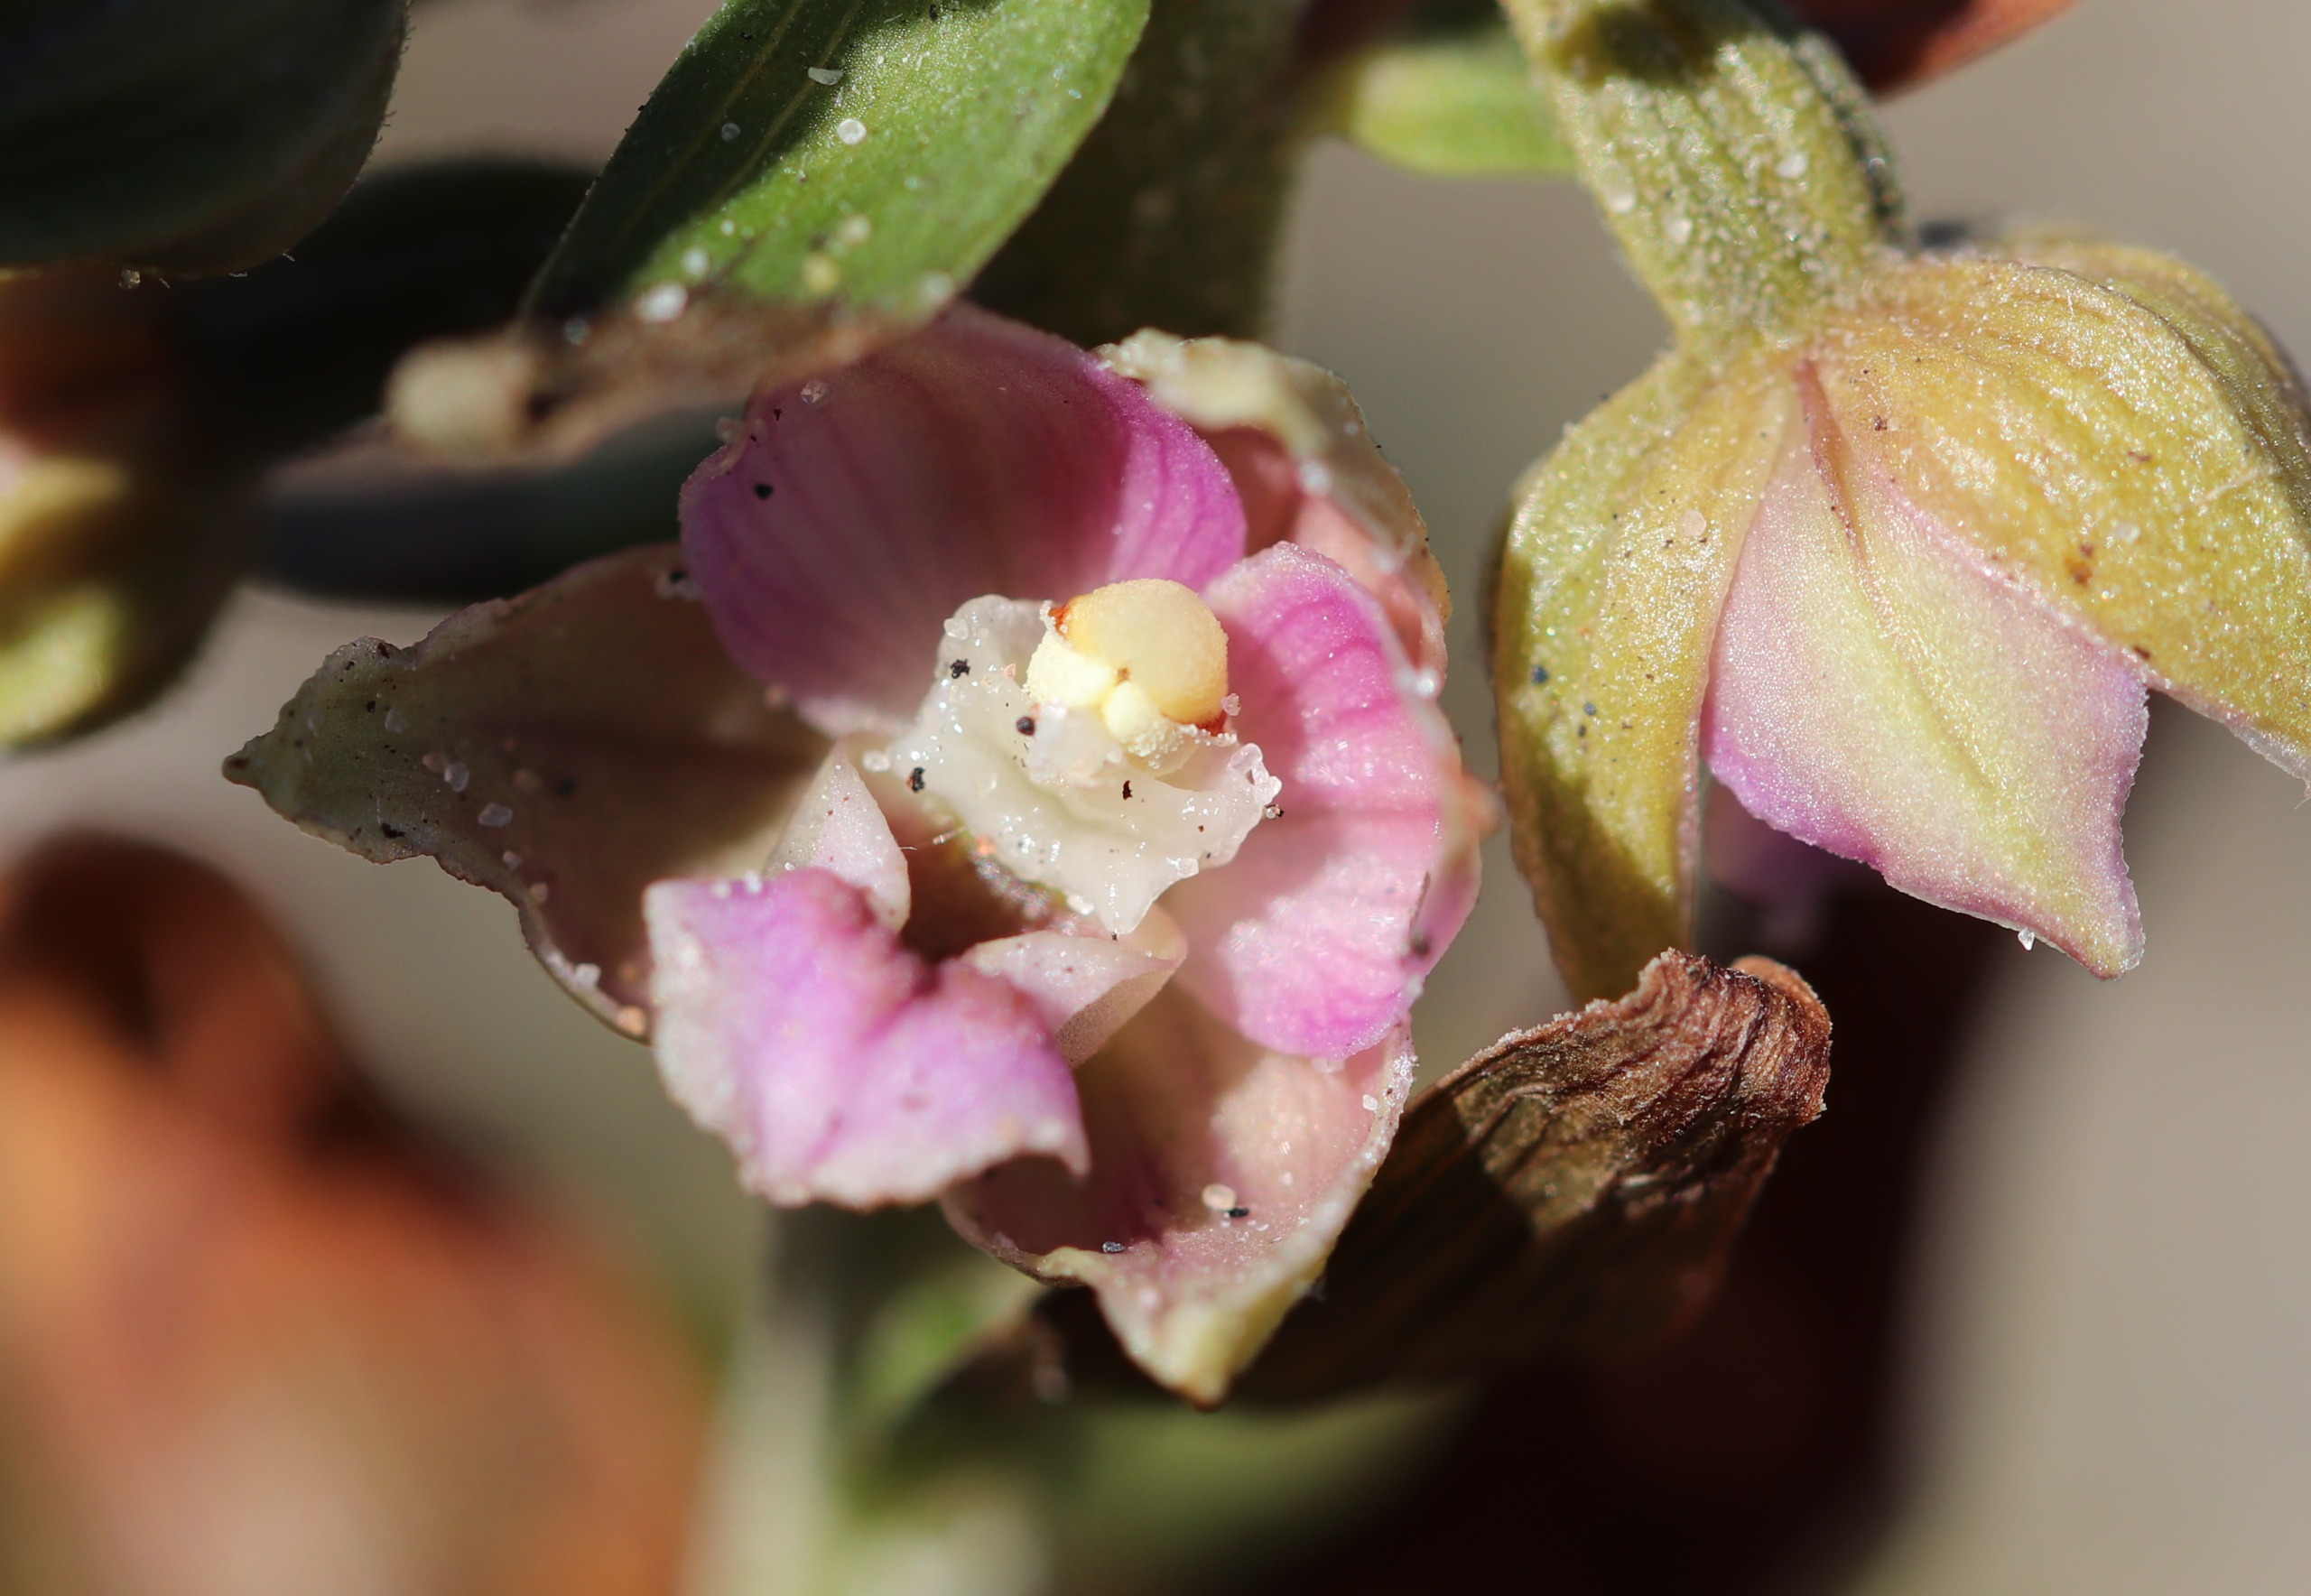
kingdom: Plantae
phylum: Tracheophyta
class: Liliopsida
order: Asparagales
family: Orchidaceae
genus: Epipactis
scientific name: Epipactis helleborine
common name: Hollandsk hullæbe
